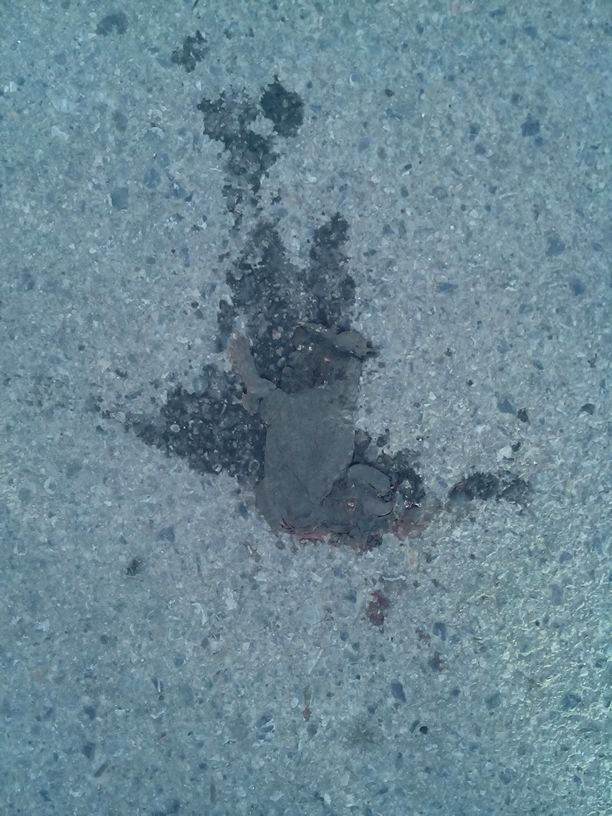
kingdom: Animalia
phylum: Chordata
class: Amphibia
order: Anura
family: Bufonidae
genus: Bufo
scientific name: Bufo bufo
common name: Common toad
